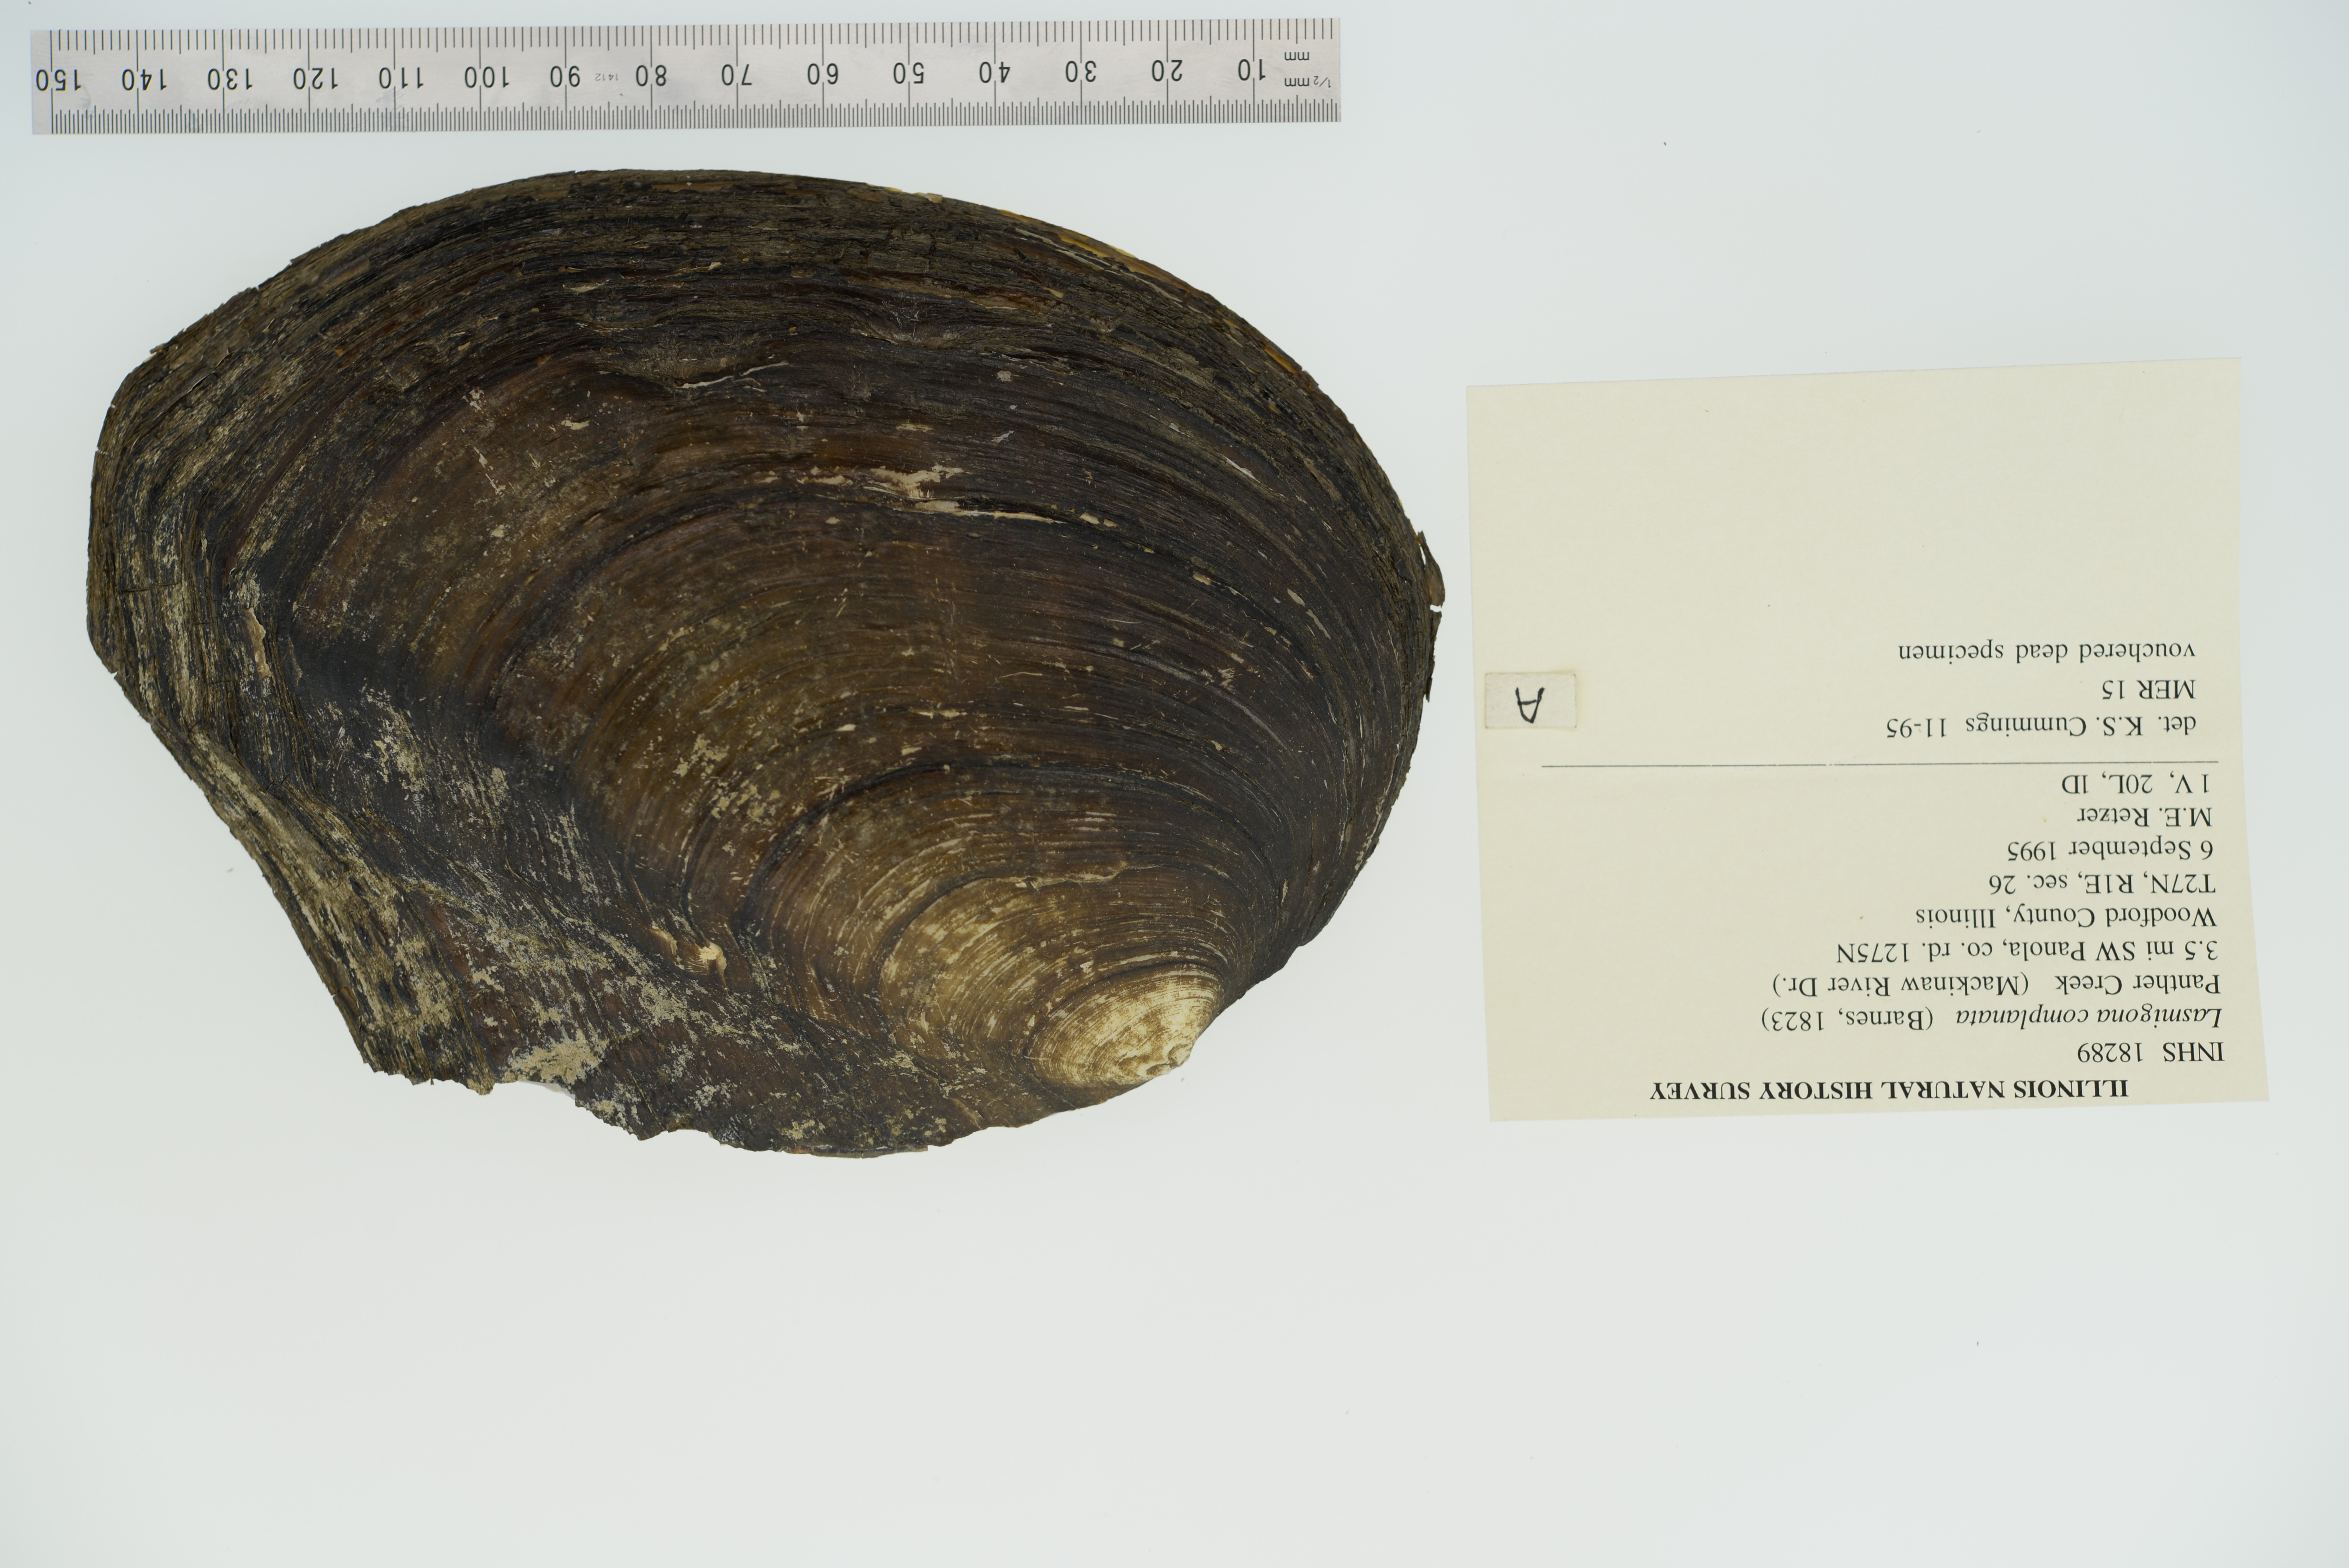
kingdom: Animalia
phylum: Mollusca
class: Bivalvia
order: Unionida
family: Unionidae
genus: Lasmigona
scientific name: Lasmigona complanata
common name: White heelsplitter
